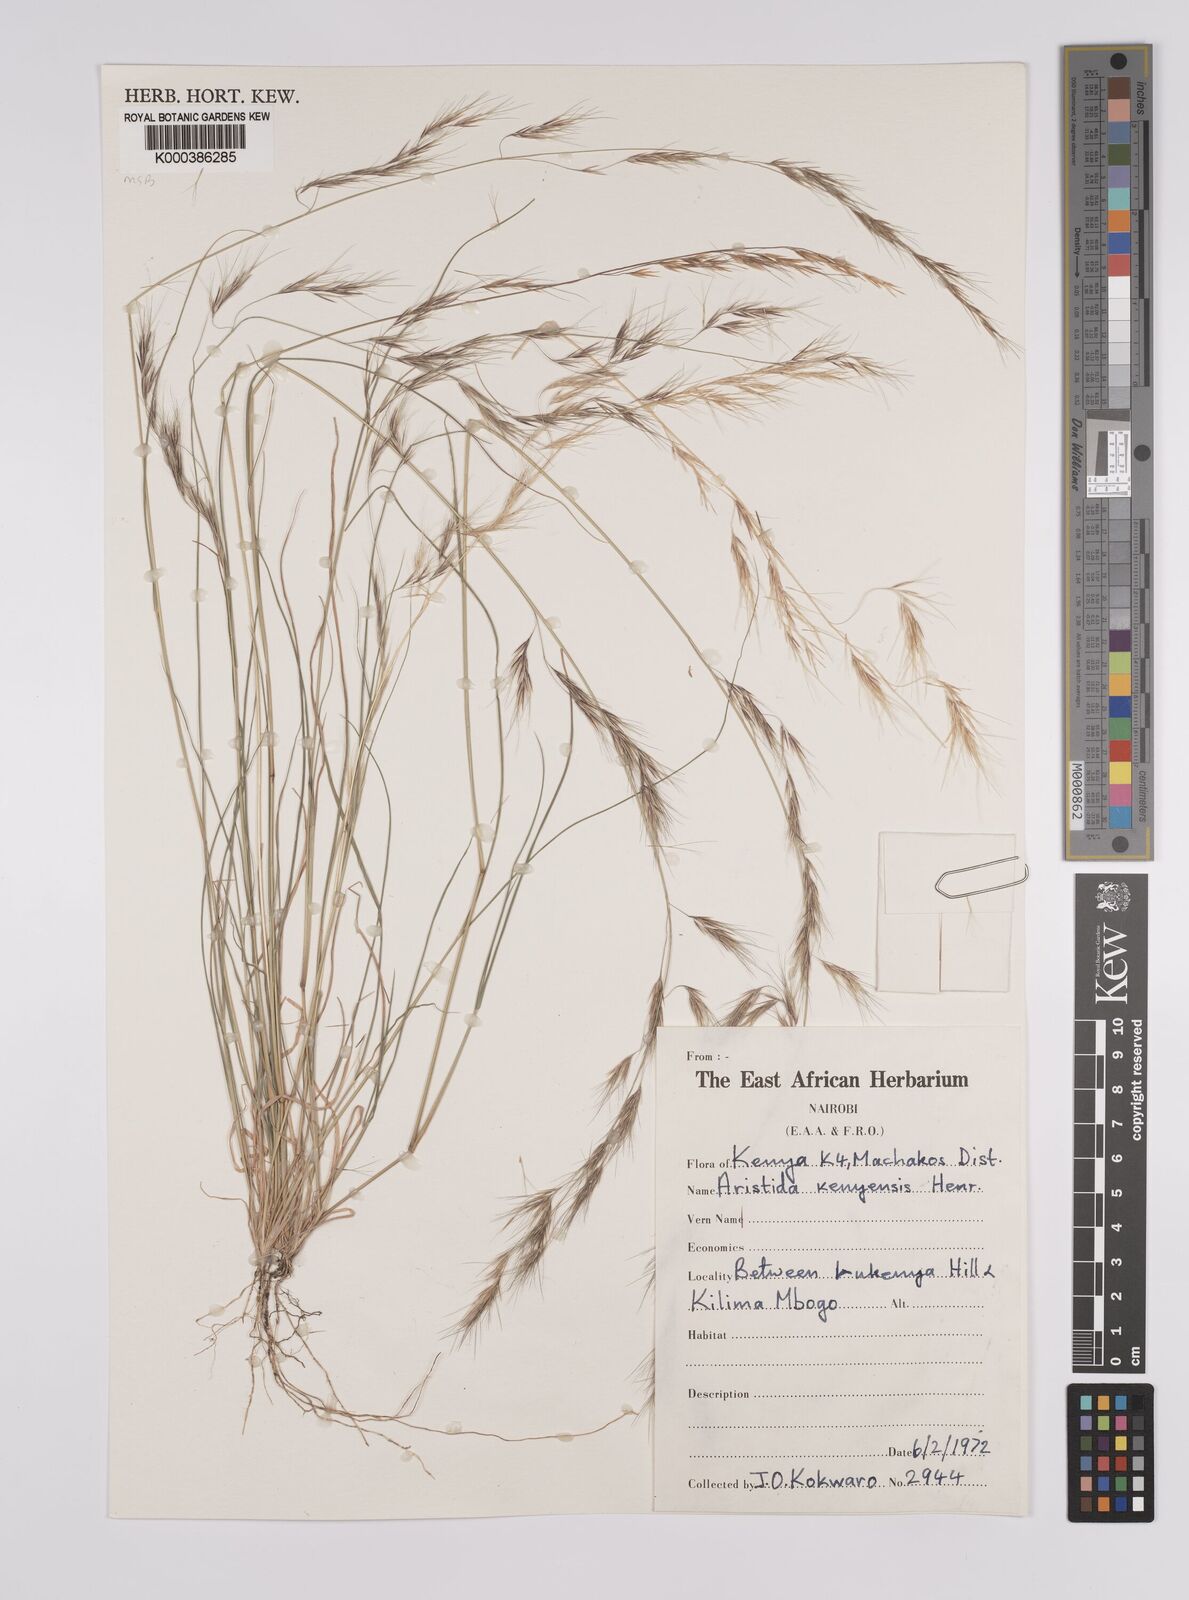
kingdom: Plantae
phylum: Tracheophyta
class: Liliopsida
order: Poales
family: Poaceae
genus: Aristida
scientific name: Aristida kenyensis
